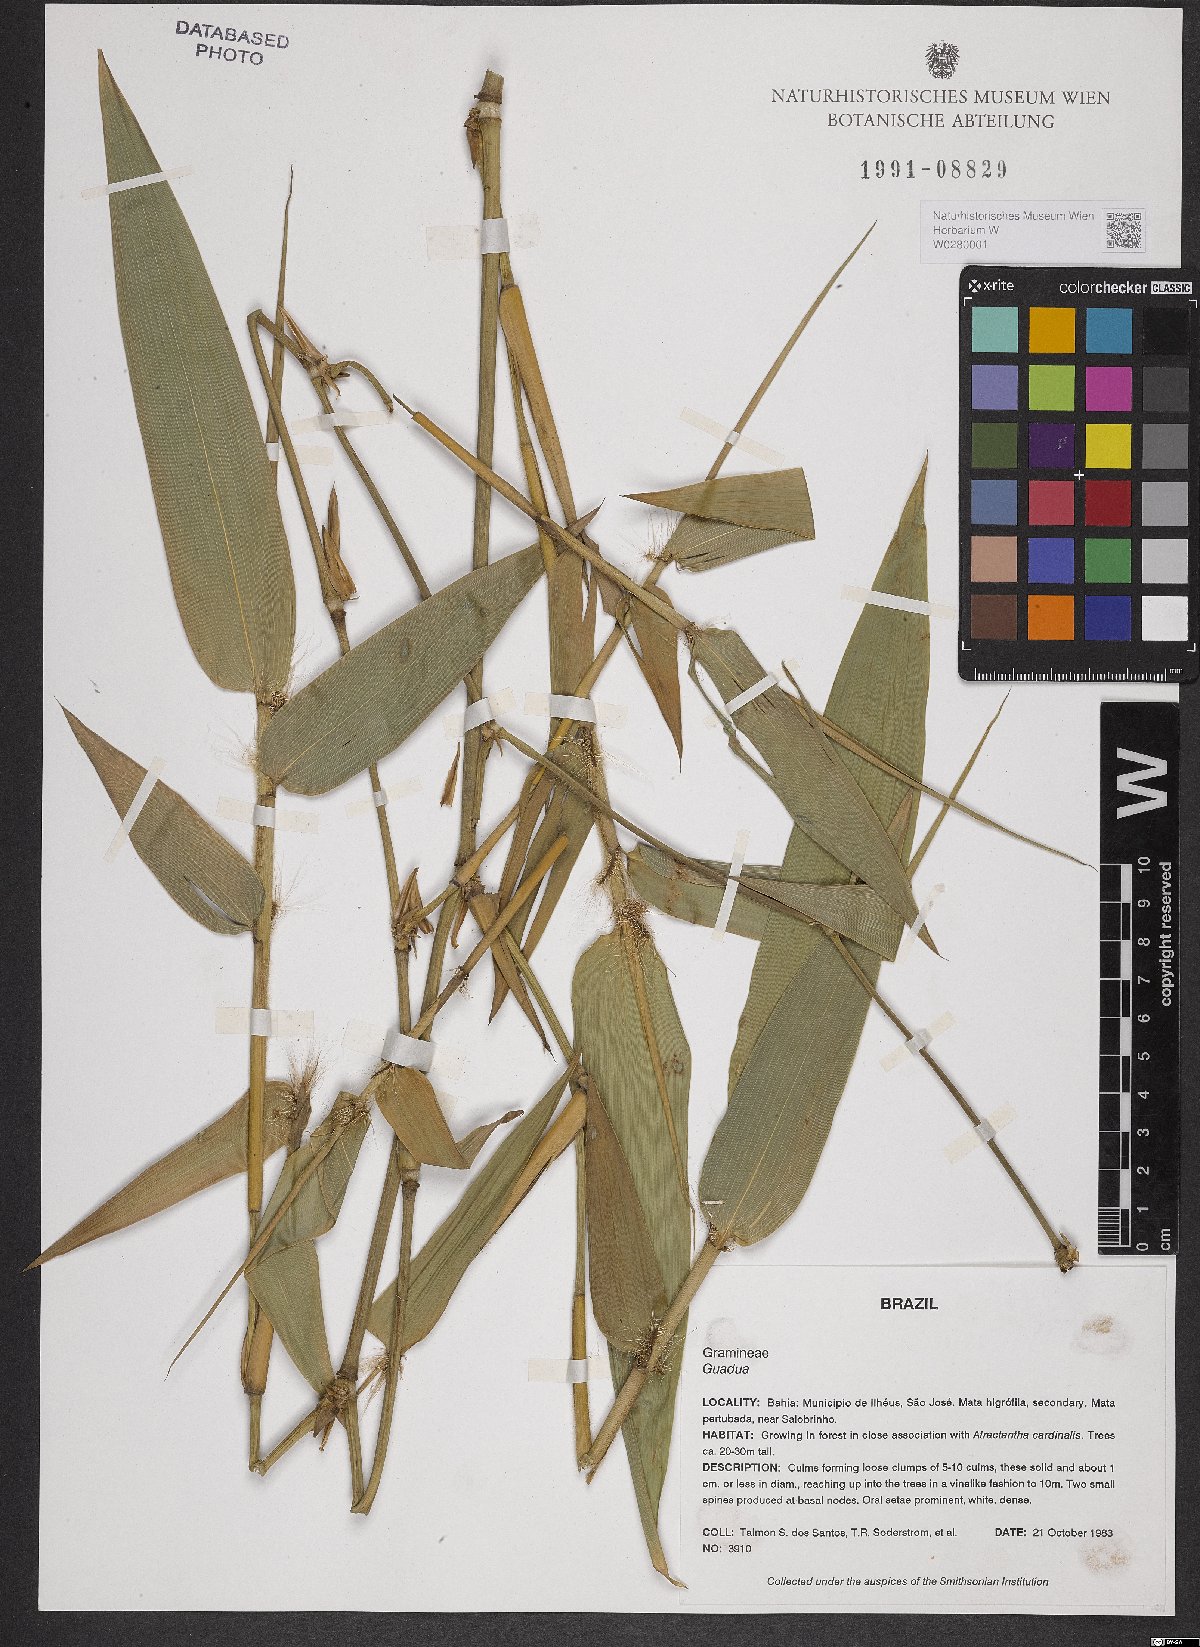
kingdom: Plantae
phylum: Tracheophyta
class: Liliopsida
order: Poales
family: Poaceae
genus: Bambusa
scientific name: Bambusa
